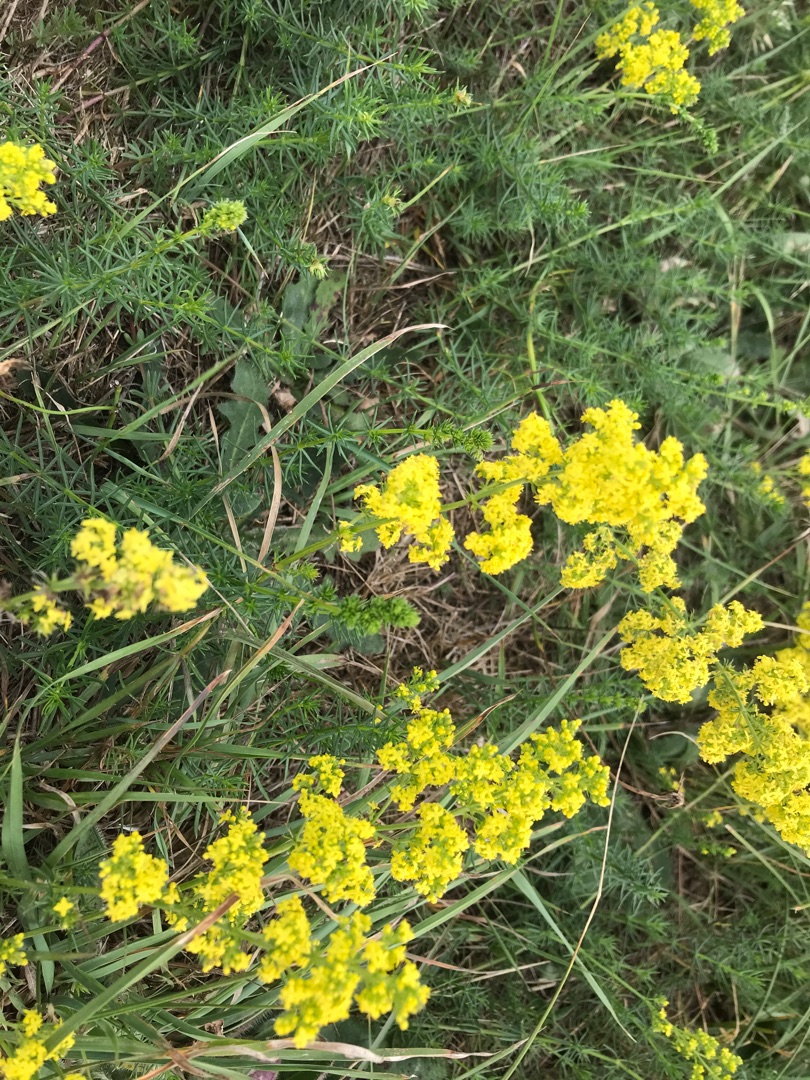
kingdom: Plantae
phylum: Tracheophyta
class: Magnoliopsida
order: Gentianales
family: Rubiaceae
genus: Galium
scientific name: Galium verum
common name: Gul snerre
